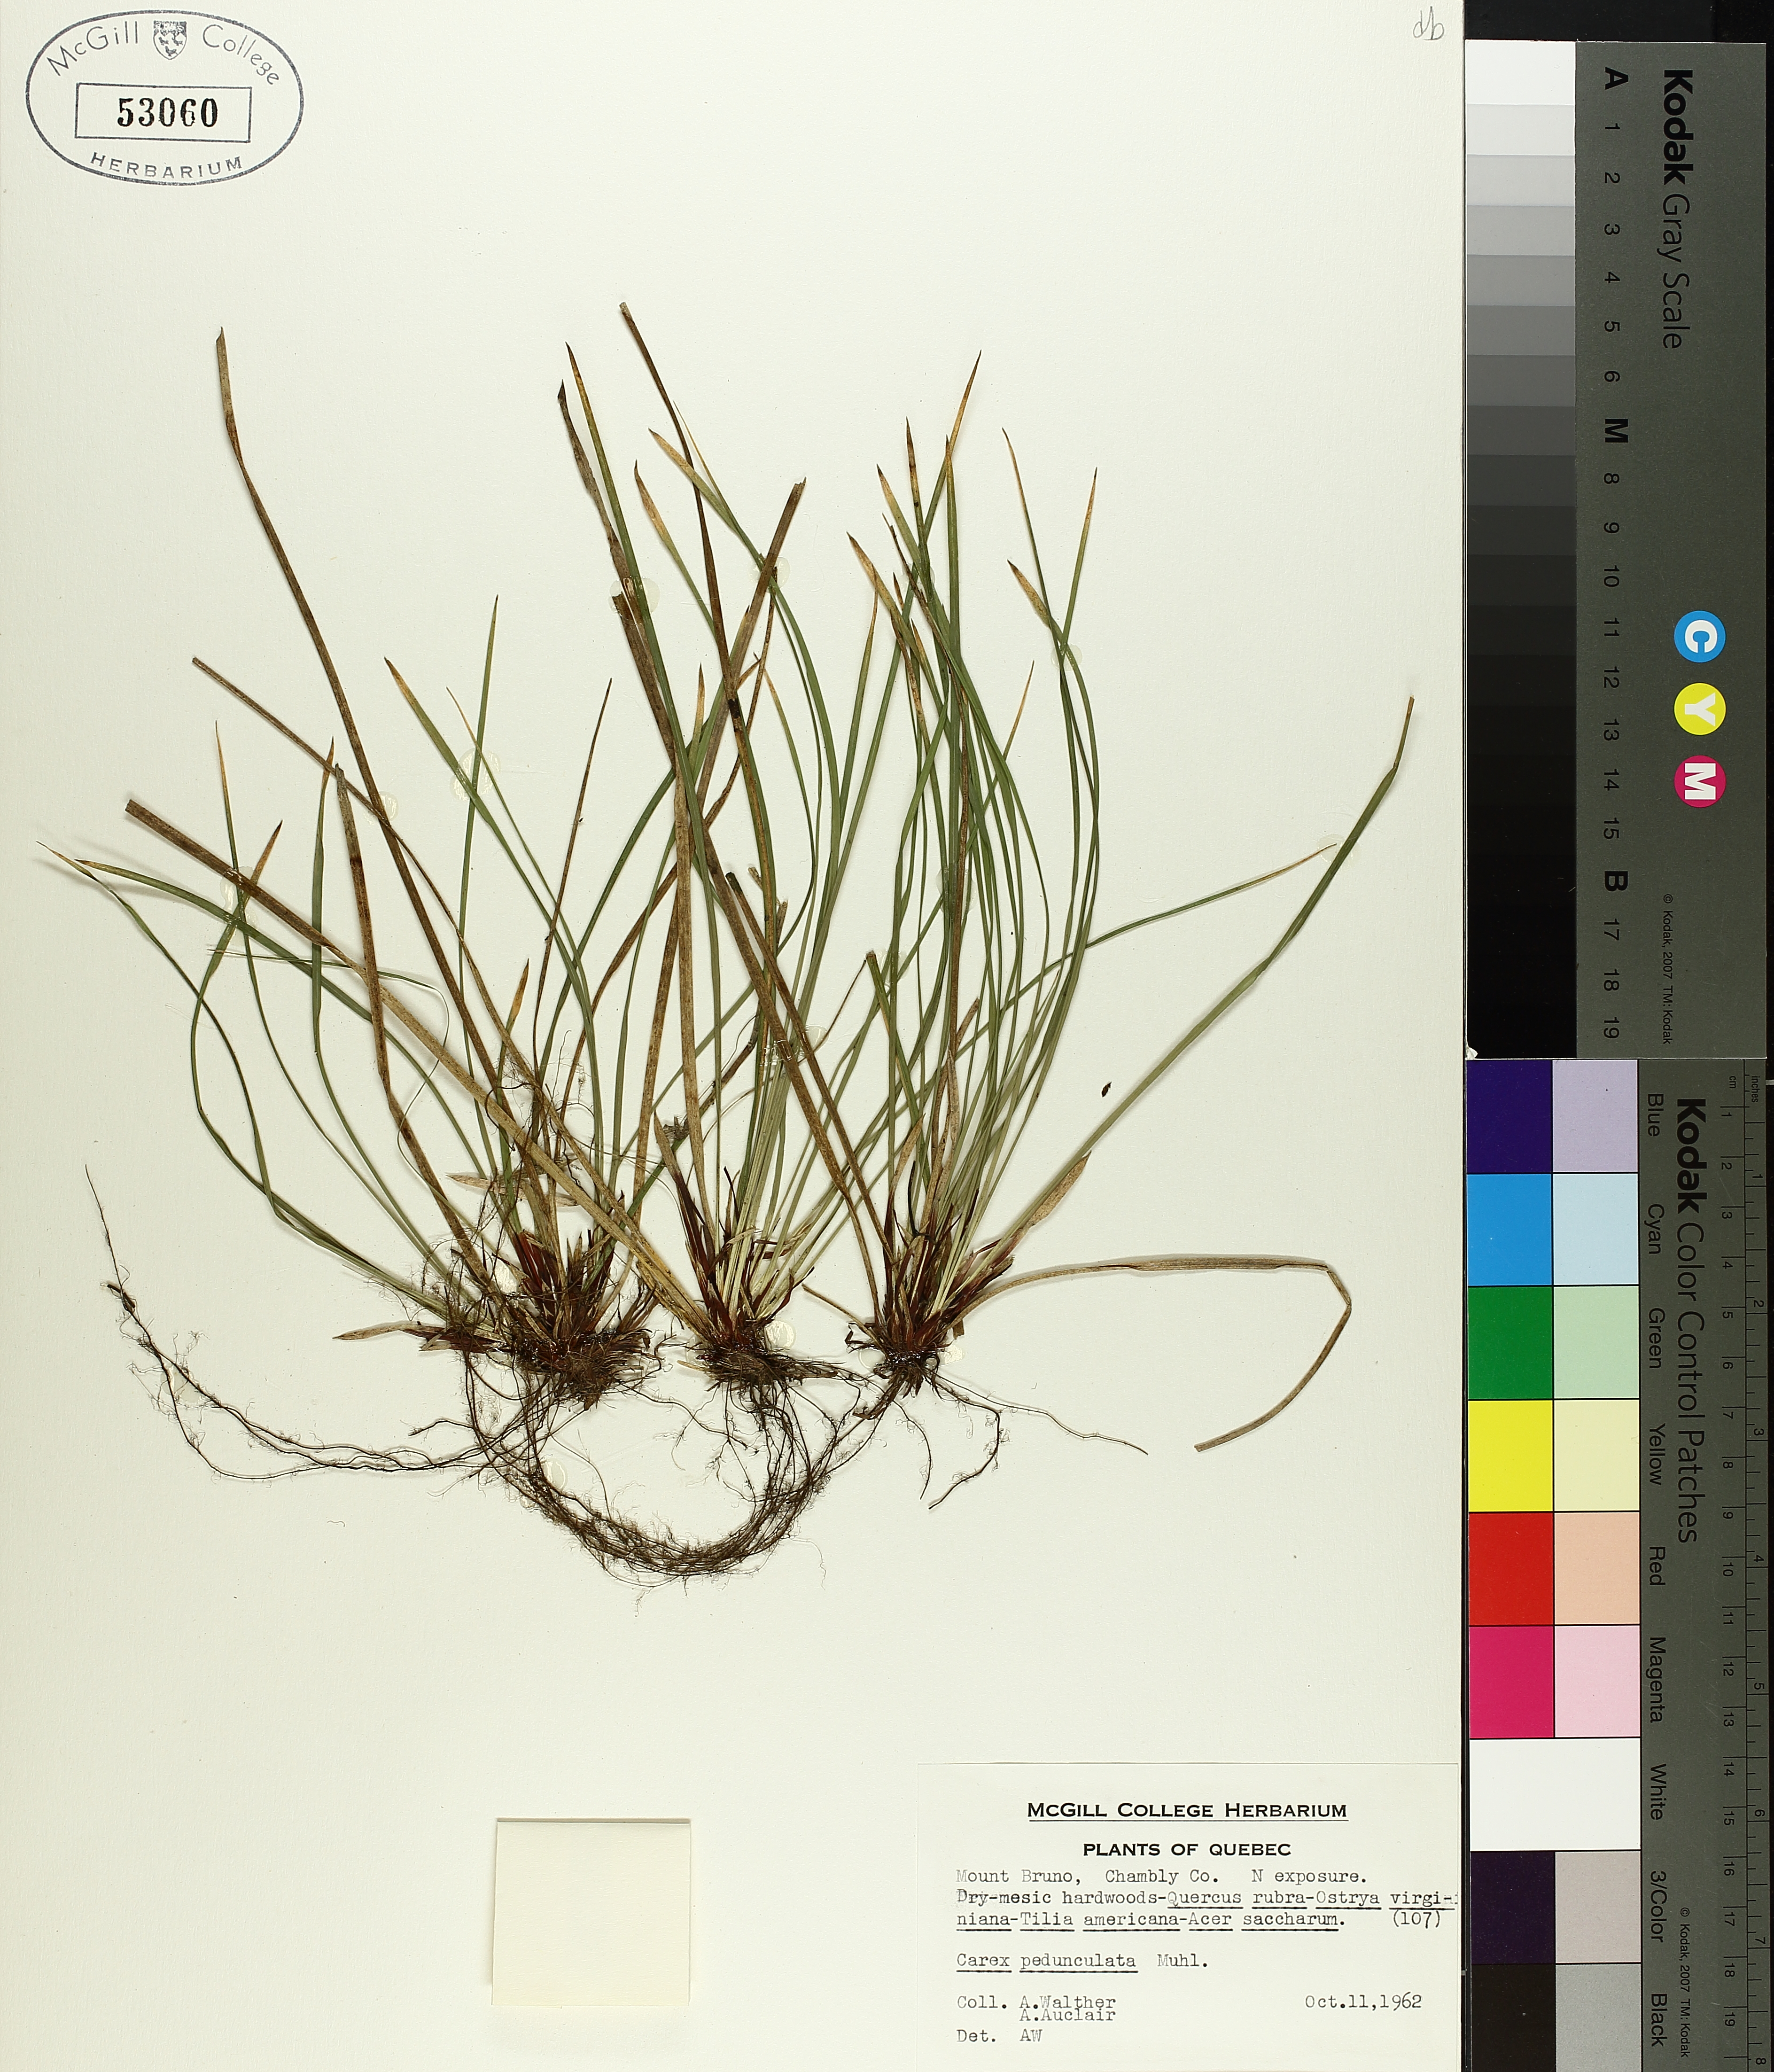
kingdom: Plantae
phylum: Tracheophyta
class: Liliopsida
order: Poales
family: Cyperaceae
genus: Carex
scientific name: Carex pedunculata
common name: Pedunculate sedge
